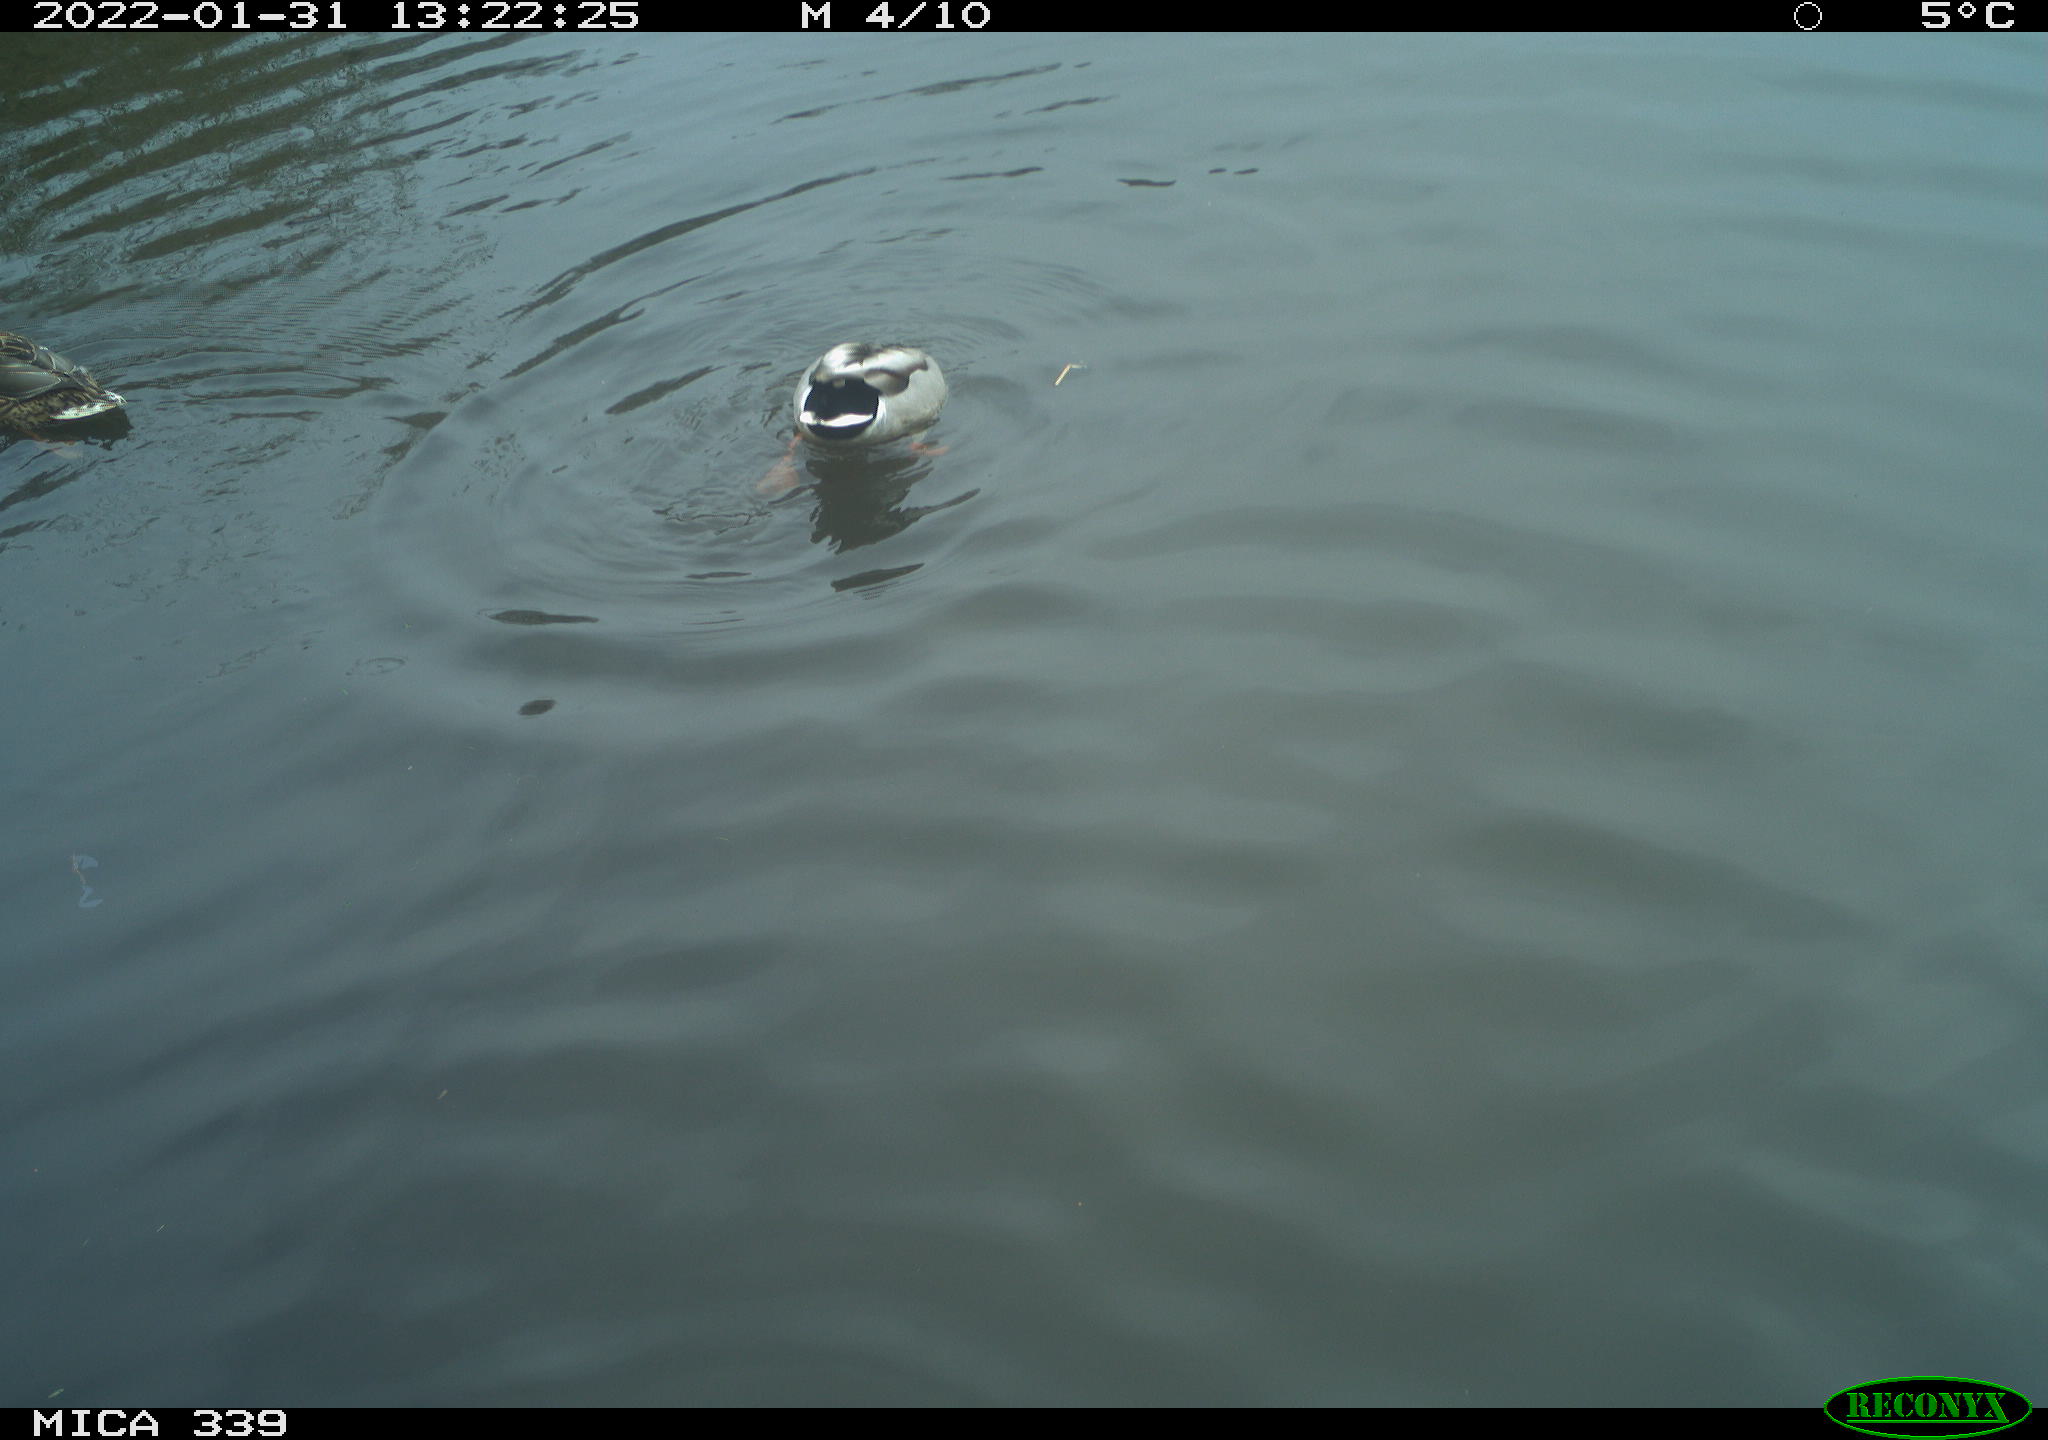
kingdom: Animalia
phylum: Chordata
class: Aves
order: Anseriformes
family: Anatidae
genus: Anas
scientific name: Anas platyrhynchos
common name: Mallard
